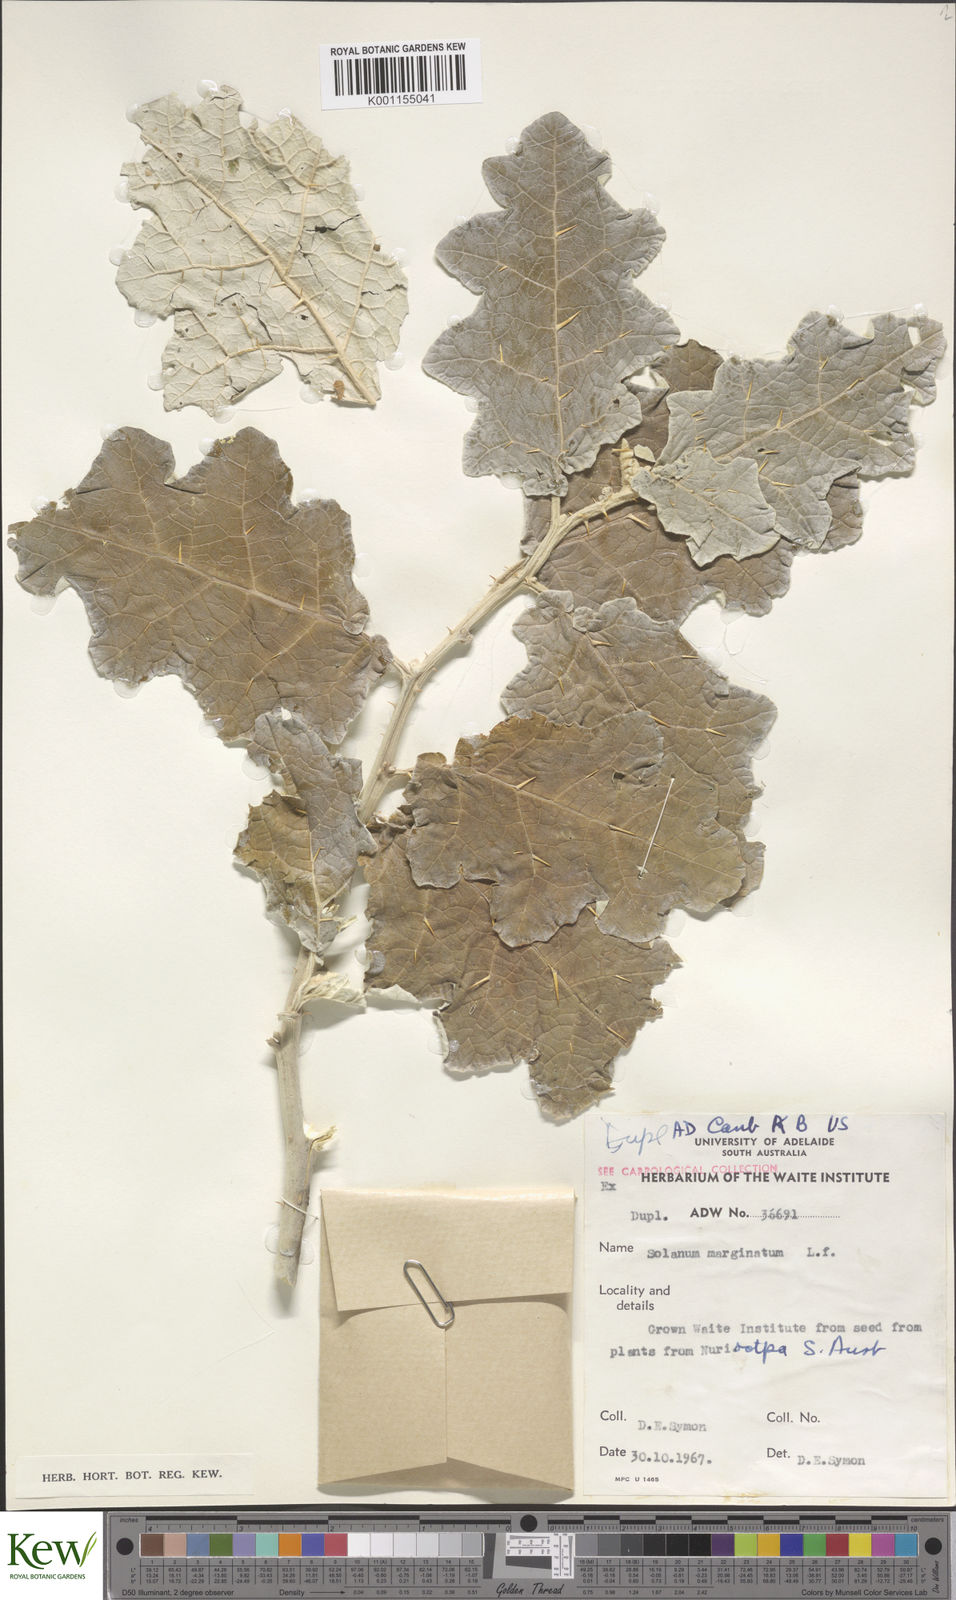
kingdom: Plantae
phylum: Tracheophyta
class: Magnoliopsida
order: Solanales
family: Solanaceae
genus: Solanum
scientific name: Solanum marginatum
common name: Purple african nightshade
